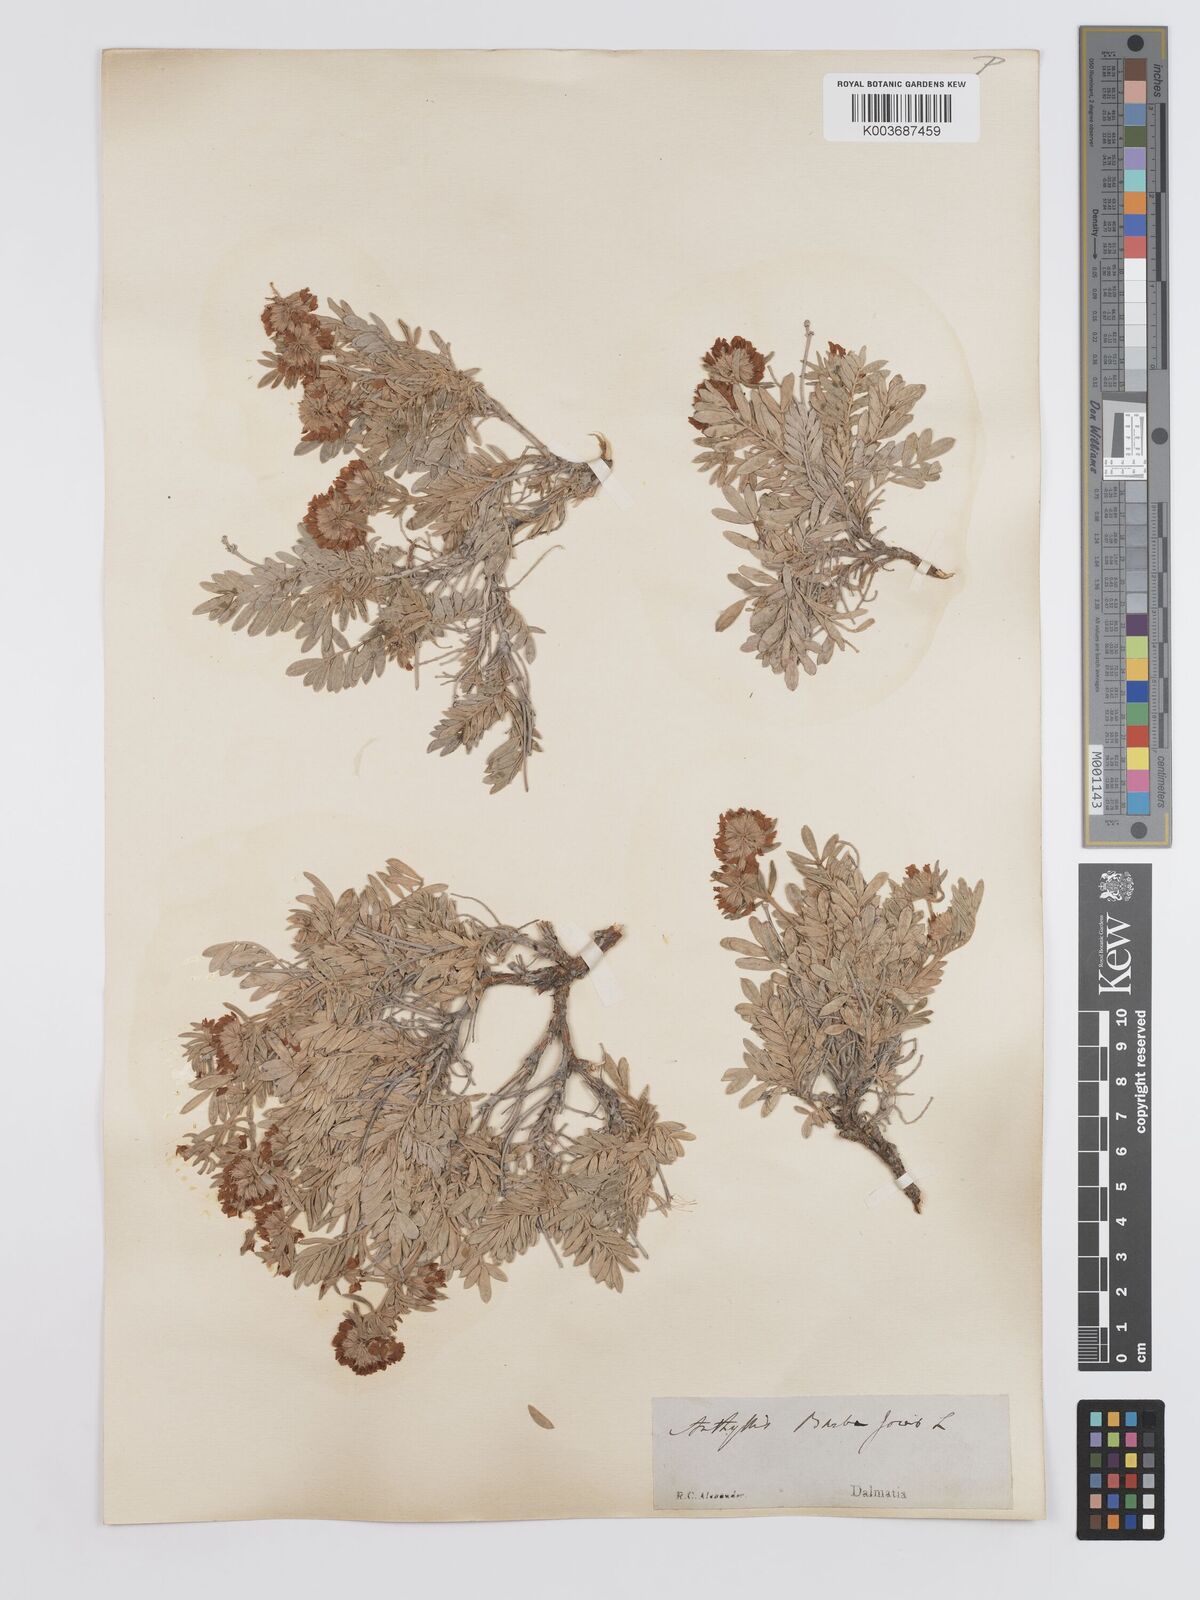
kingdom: Plantae
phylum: Tracheophyta
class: Magnoliopsida
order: Fabales
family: Fabaceae
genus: Anthyllis
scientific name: Anthyllis barba-jovis
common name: Jupiter's-beard
